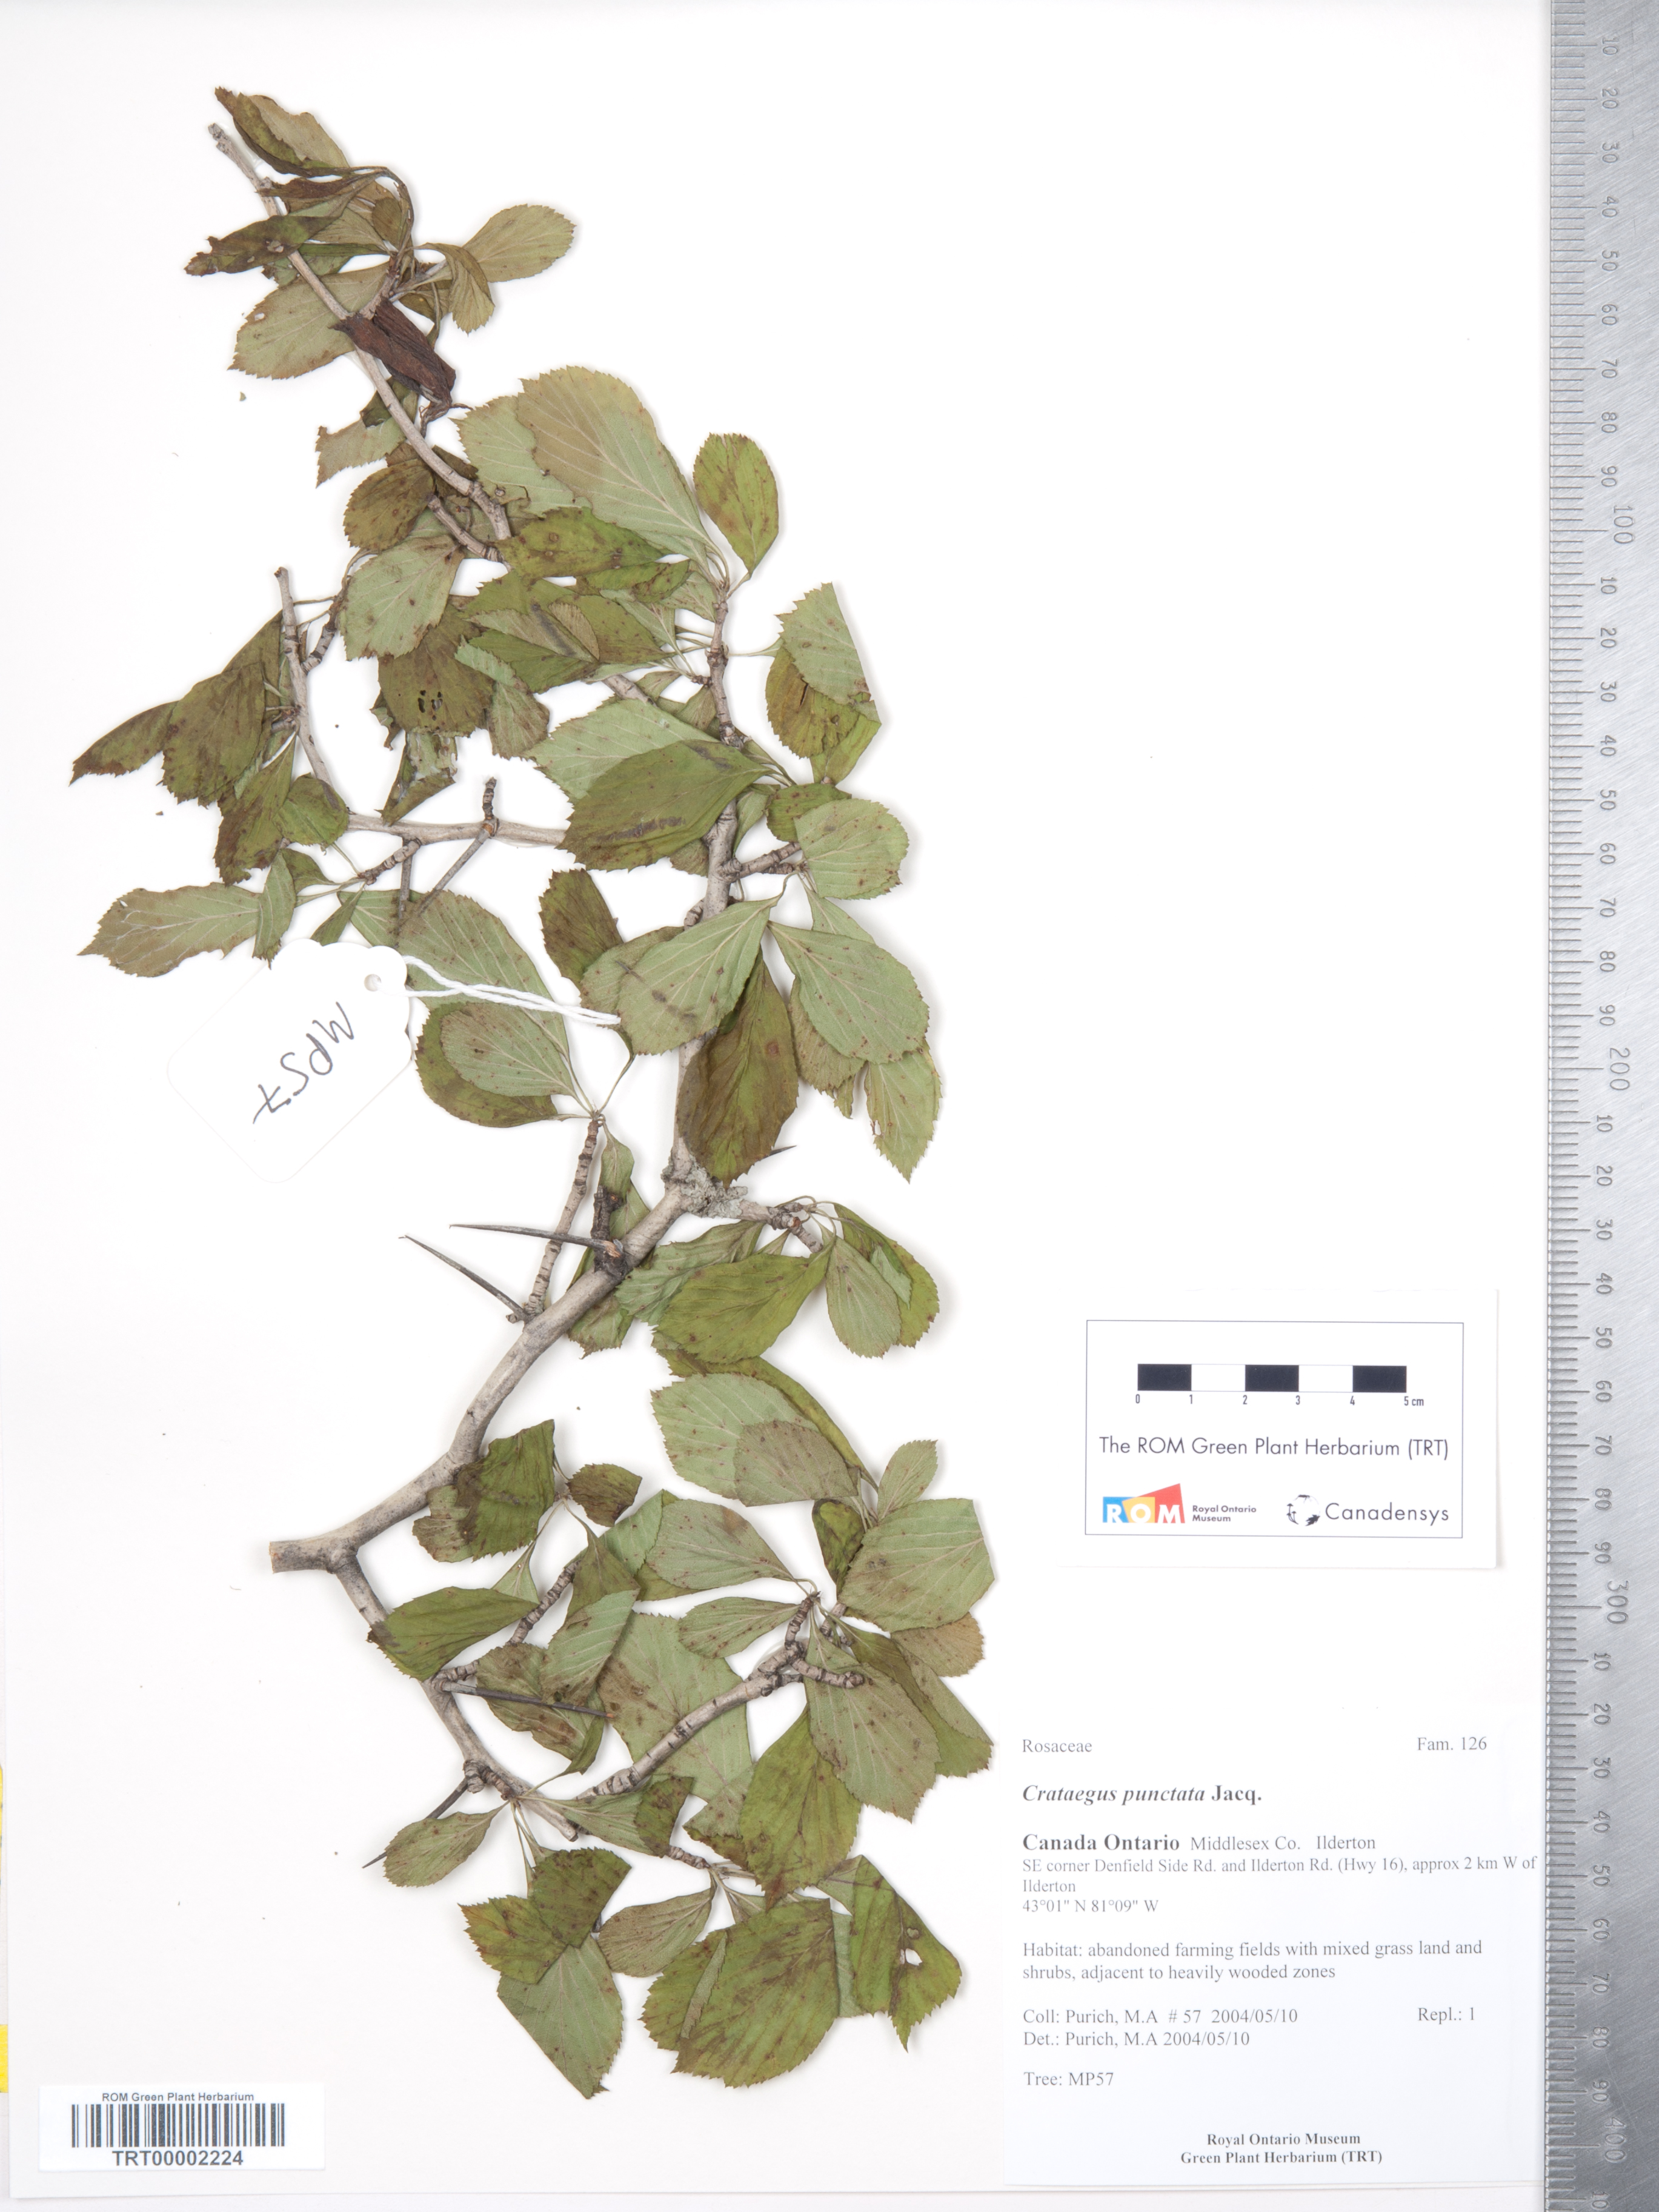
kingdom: Plantae
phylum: Tracheophyta
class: Magnoliopsida
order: Rosales
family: Rosaceae
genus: Crataegus
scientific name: Crataegus punctata
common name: Dotted hawthorn
